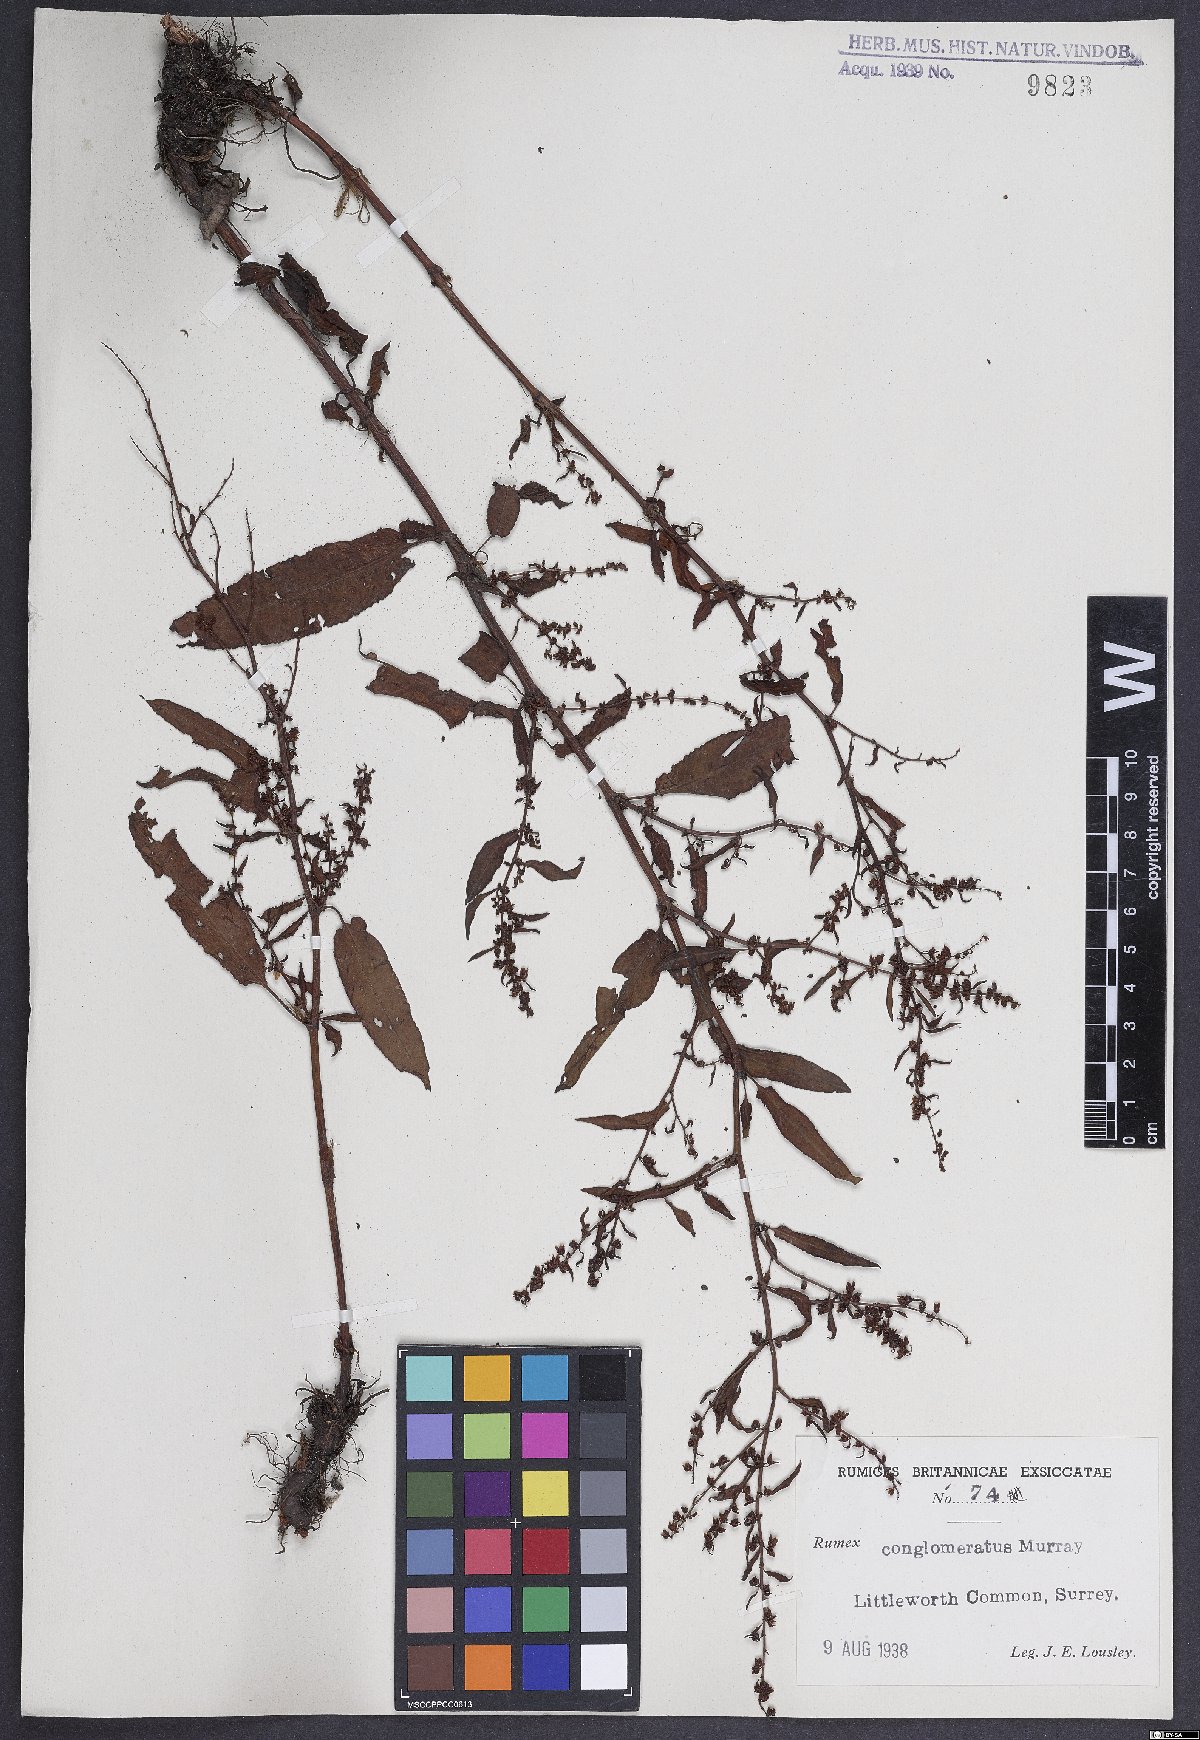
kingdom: Plantae
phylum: Tracheophyta
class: Magnoliopsida
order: Caryophyllales
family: Polygonaceae
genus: Rumex
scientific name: Rumex conglomeratus
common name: Clustered dock
